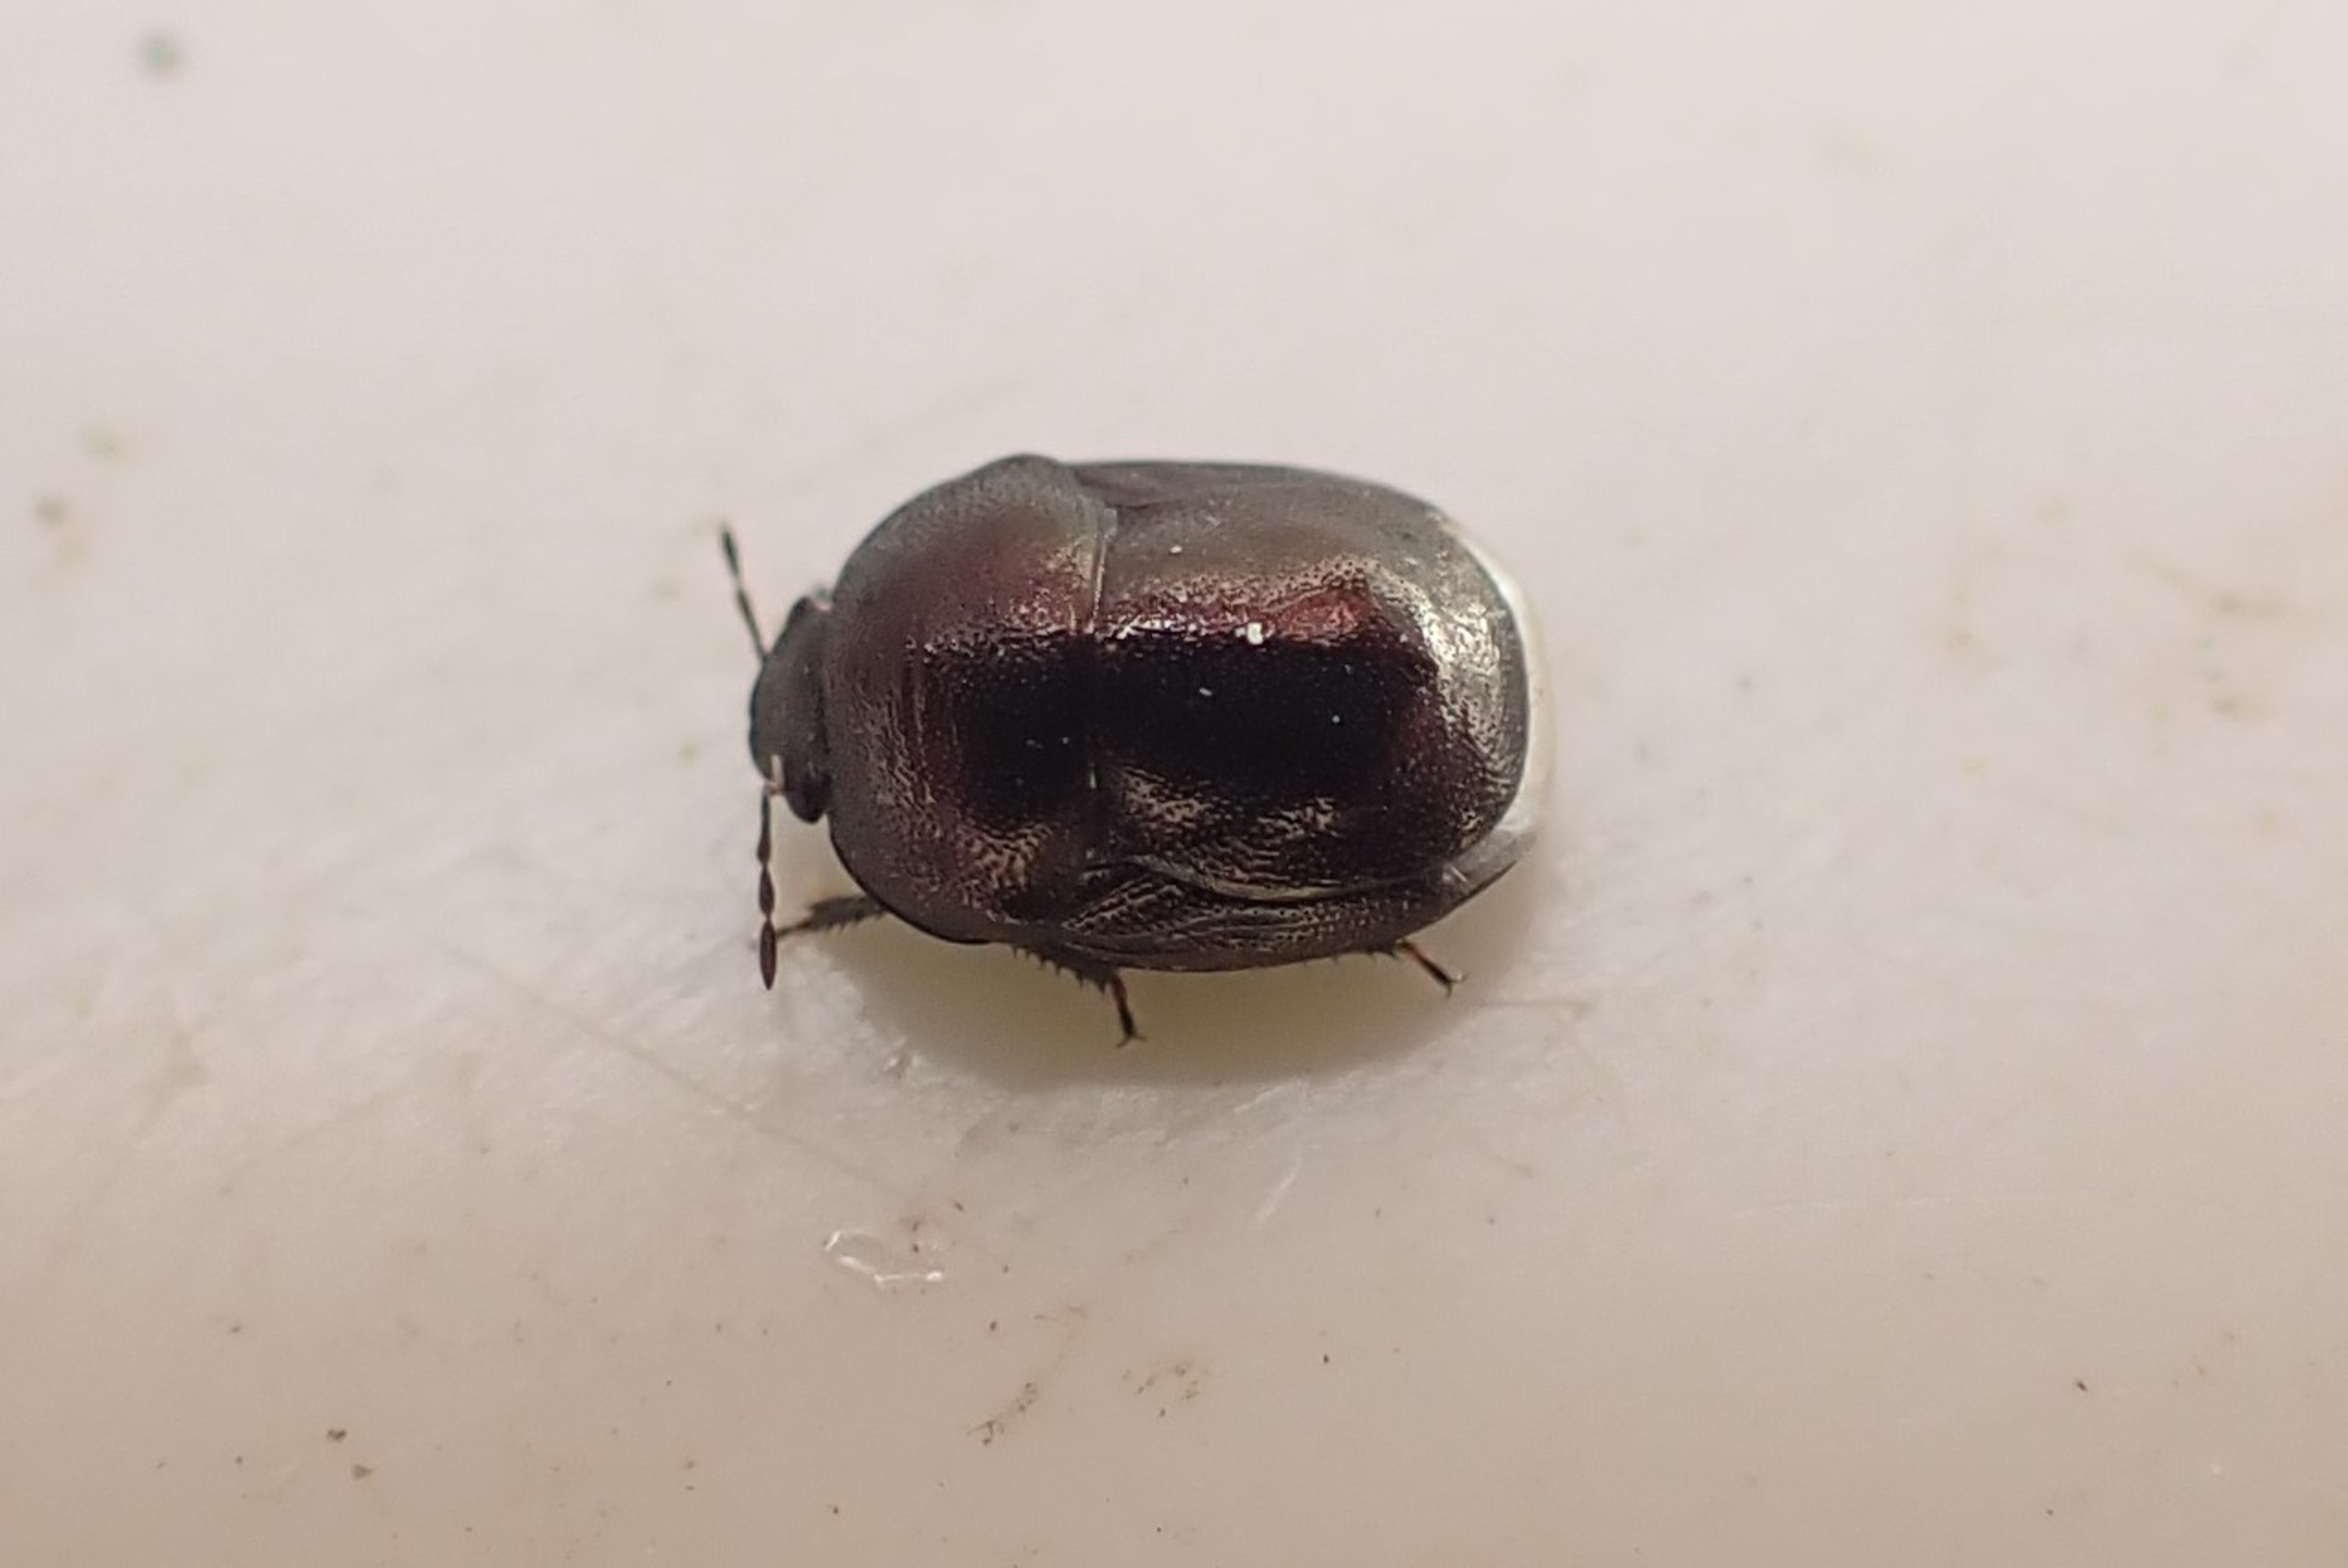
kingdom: Animalia
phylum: Arthropoda
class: Insecta
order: Hemiptera
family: Thyreocoridae
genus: Thyreocoris
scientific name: Thyreocoris scarabaeoides
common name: Blank tornben
